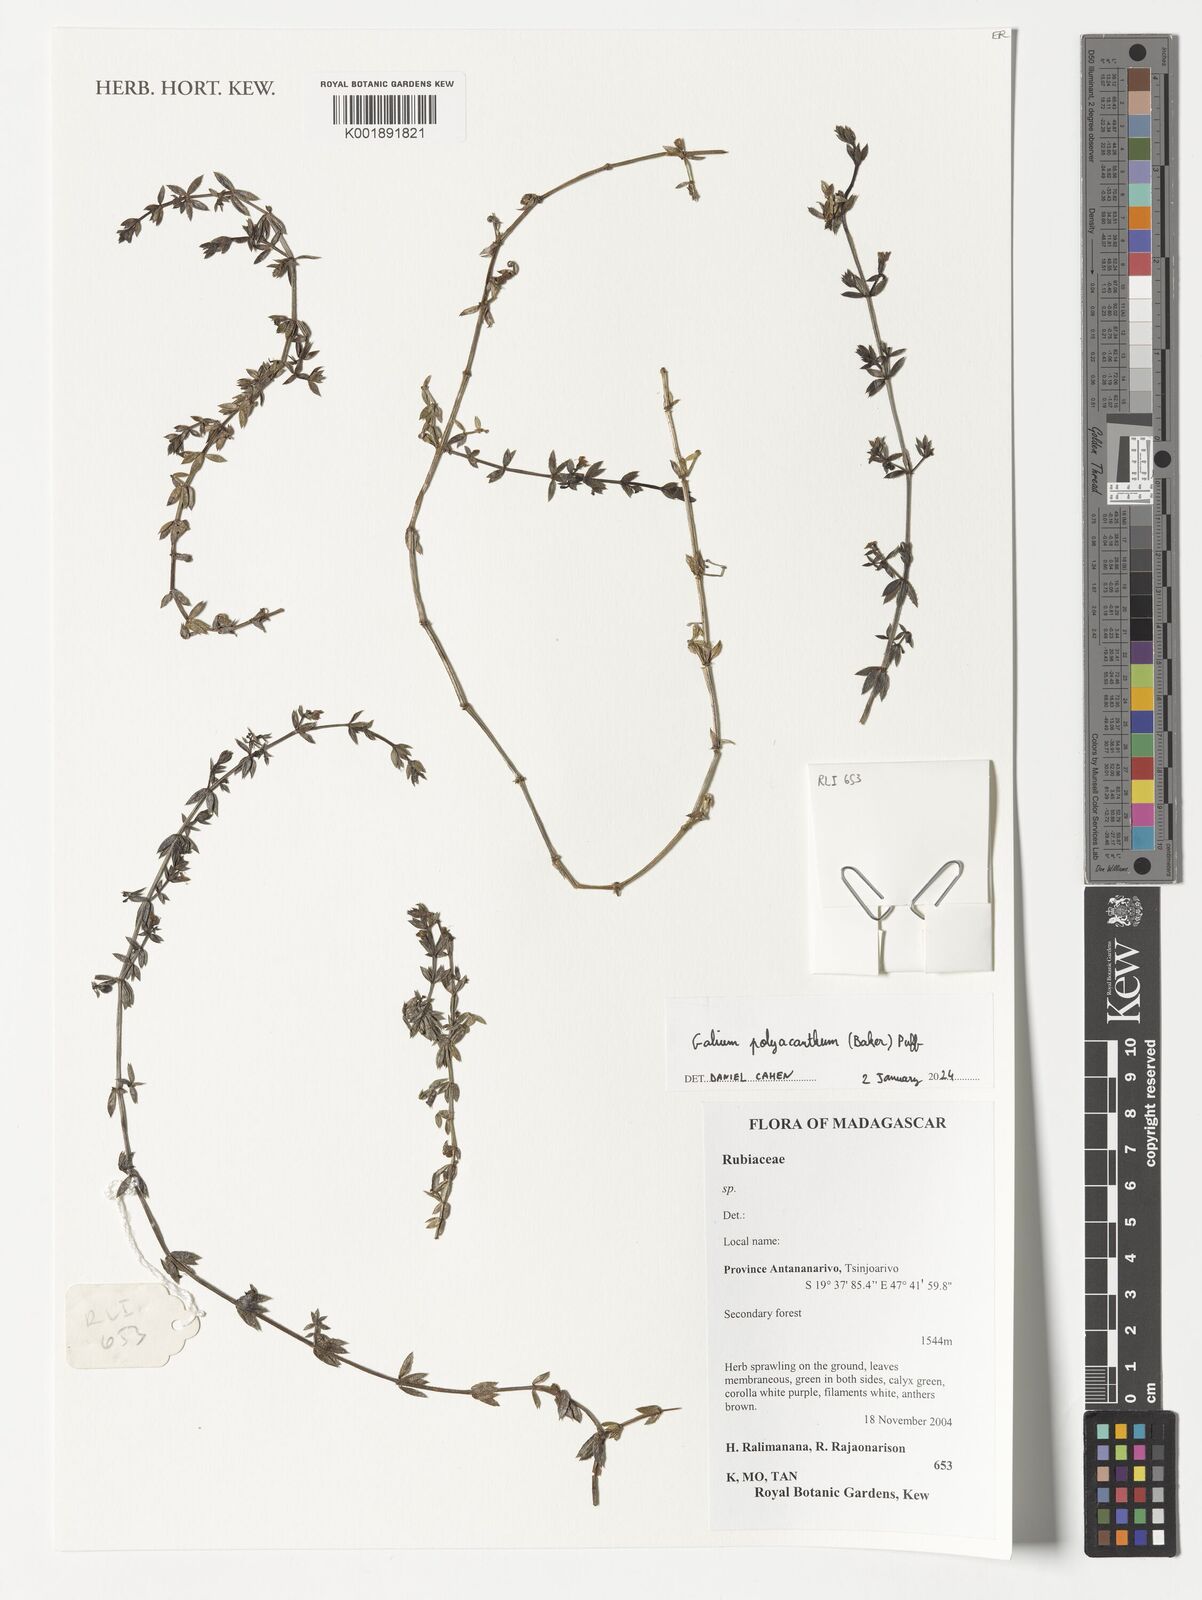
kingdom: Plantae
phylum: Tracheophyta
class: Magnoliopsida
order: Gentianales
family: Rubiaceae
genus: Galium
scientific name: Galium polyacanthum
